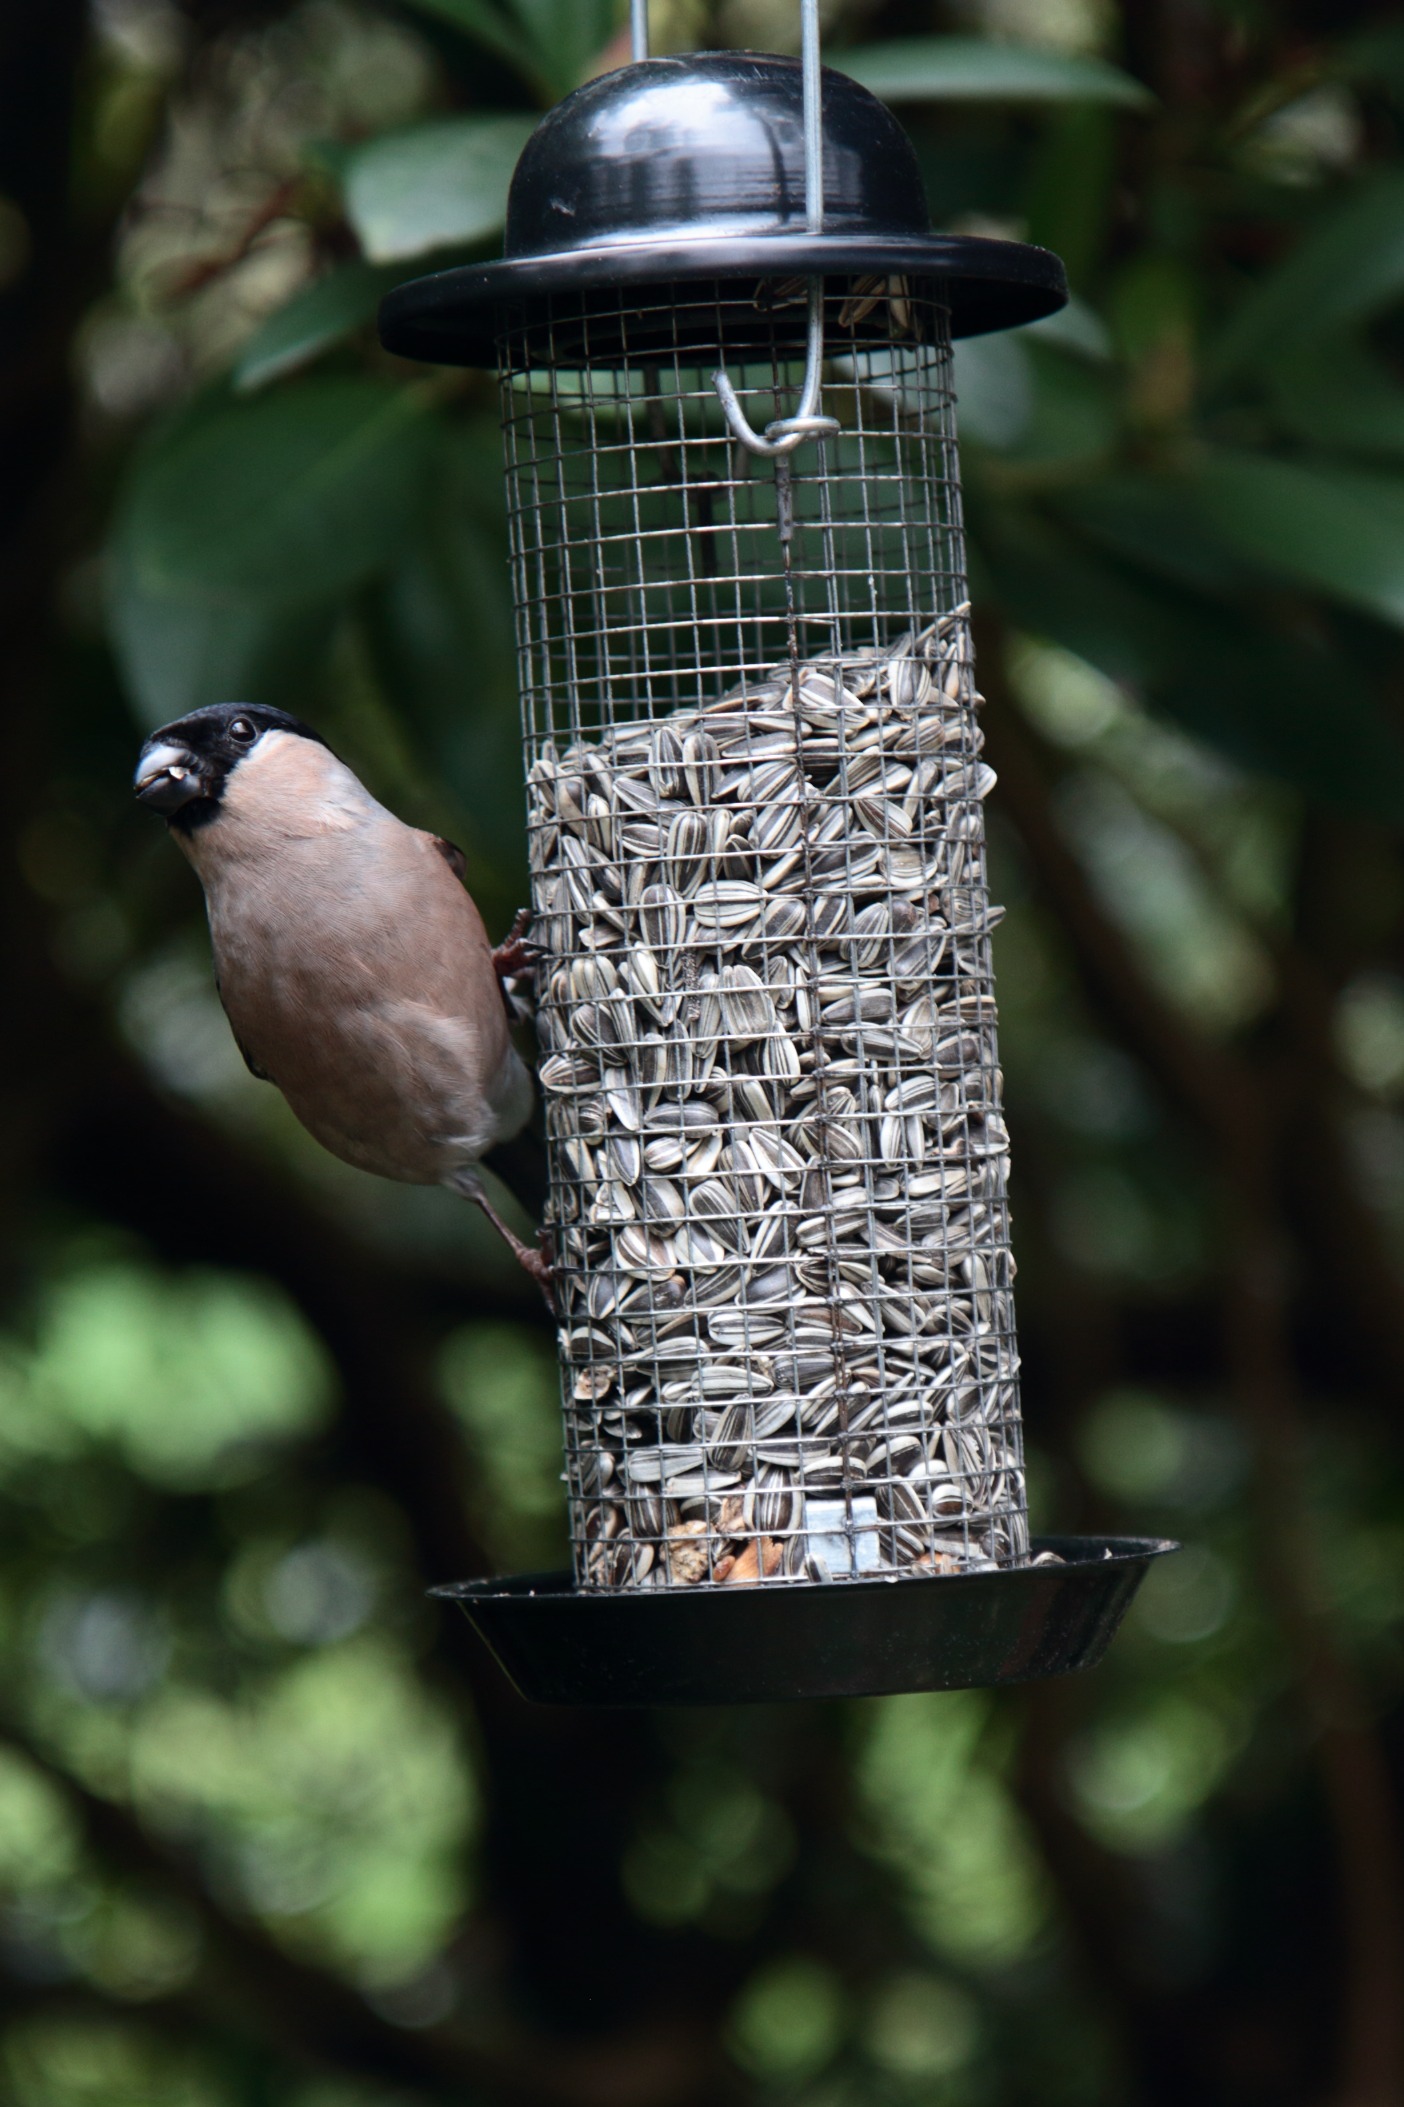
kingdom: Animalia
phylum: Chordata
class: Aves
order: Passeriformes
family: Fringillidae
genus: Pyrrhula
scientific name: Pyrrhula pyrrhula
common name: Dompap
